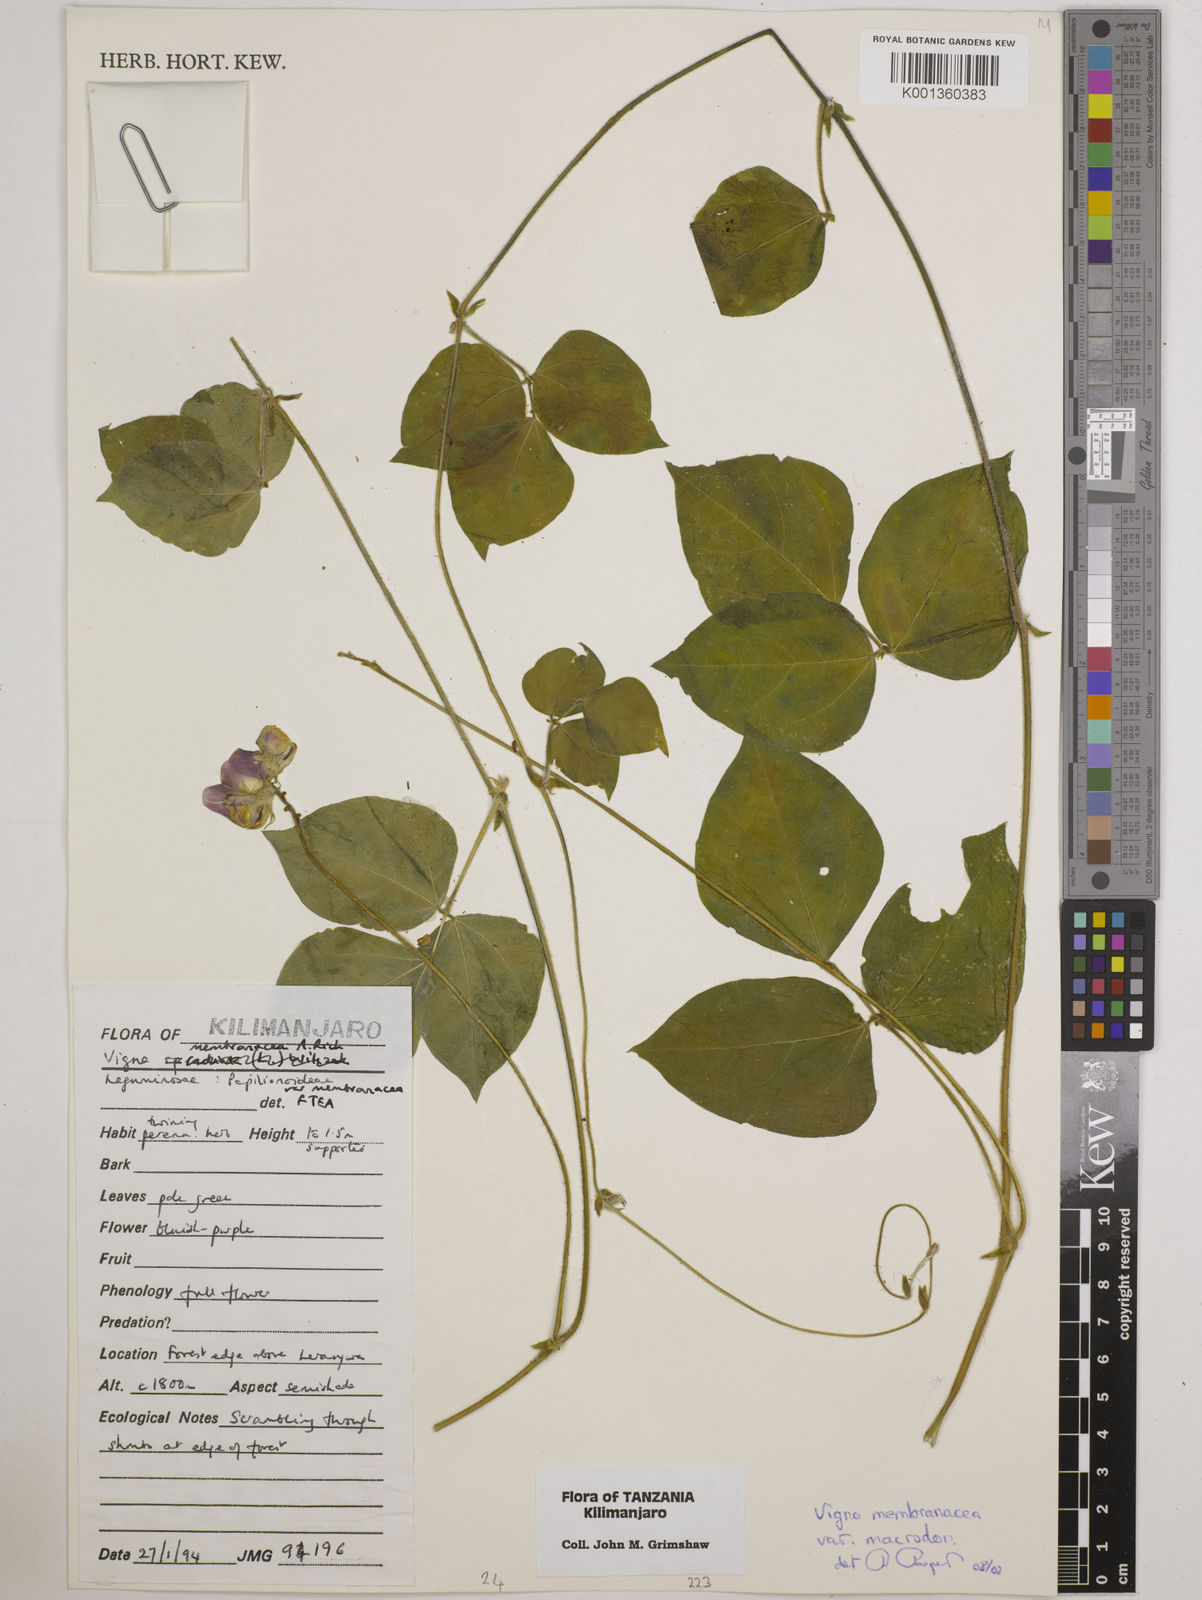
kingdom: Plantae
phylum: Tracheophyta
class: Magnoliopsida
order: Fabales
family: Fabaceae
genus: Vigna
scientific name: Vigna
